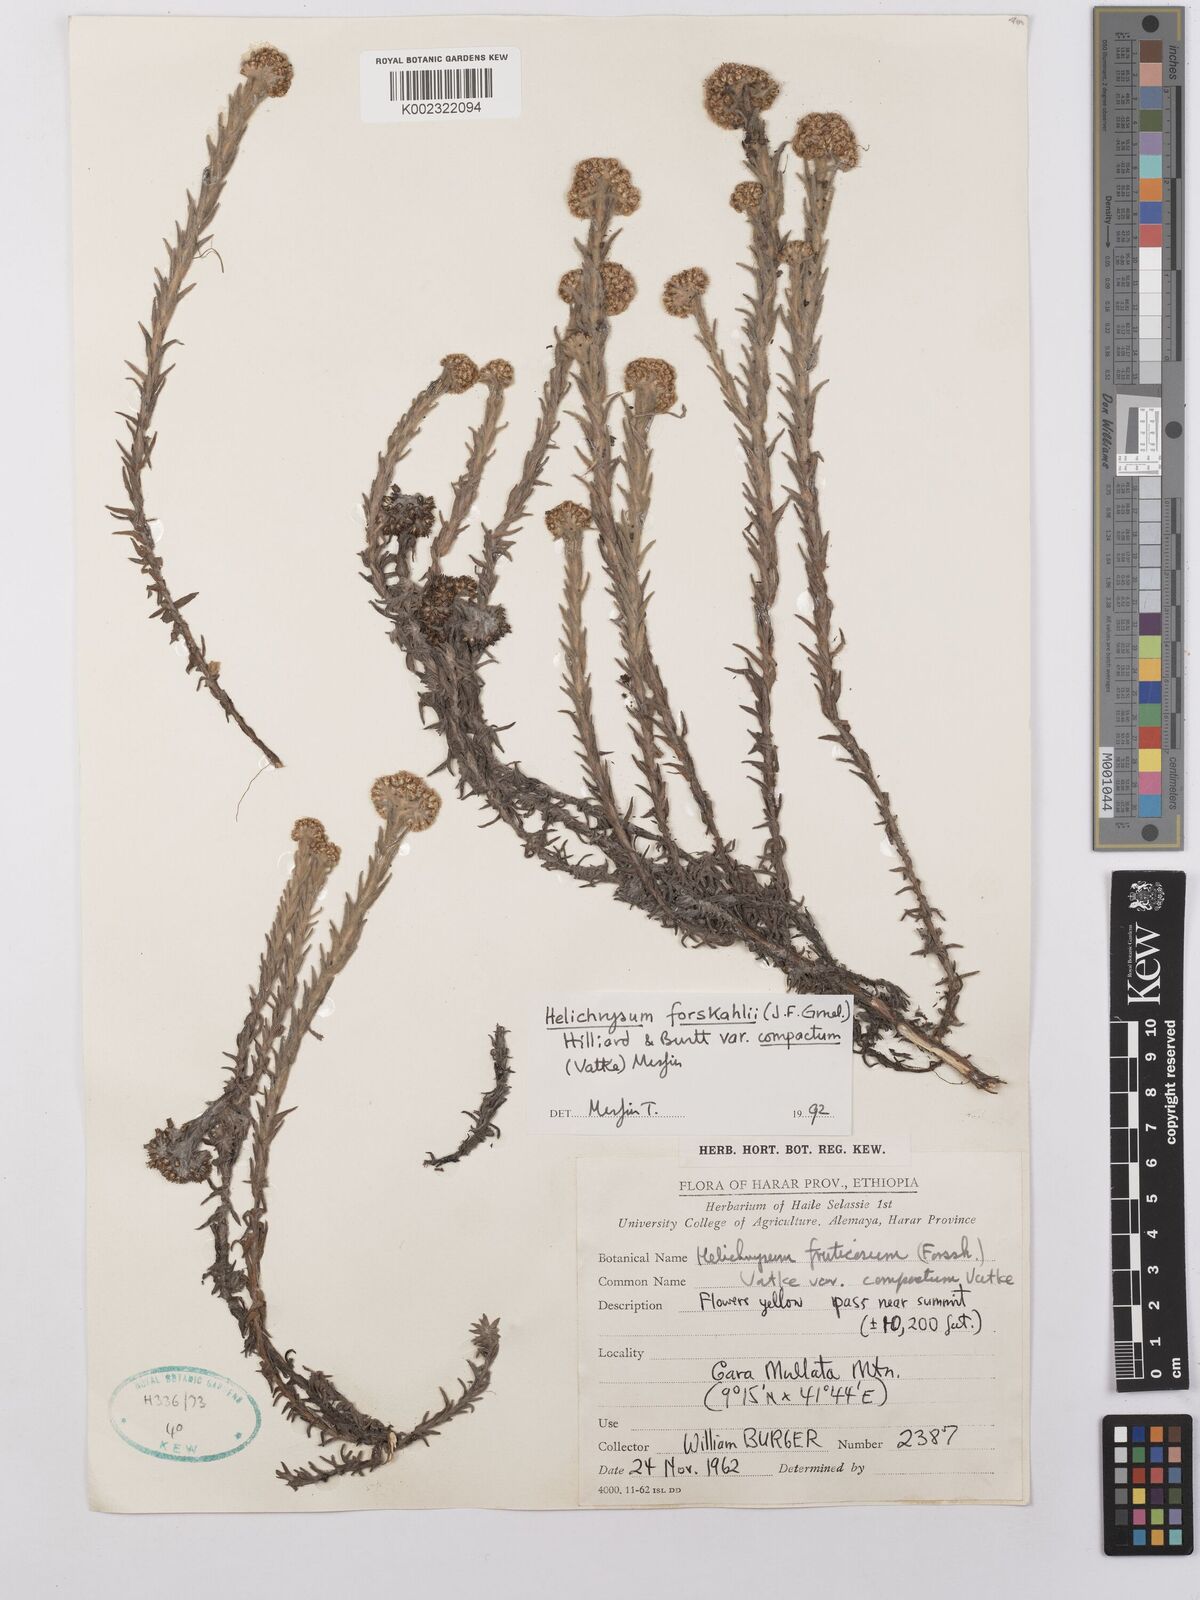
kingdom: Plantae
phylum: Tracheophyta
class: Magnoliopsida
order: Asterales
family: Asteraceae
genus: Helichrysum
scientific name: Helichrysum forskahlii
